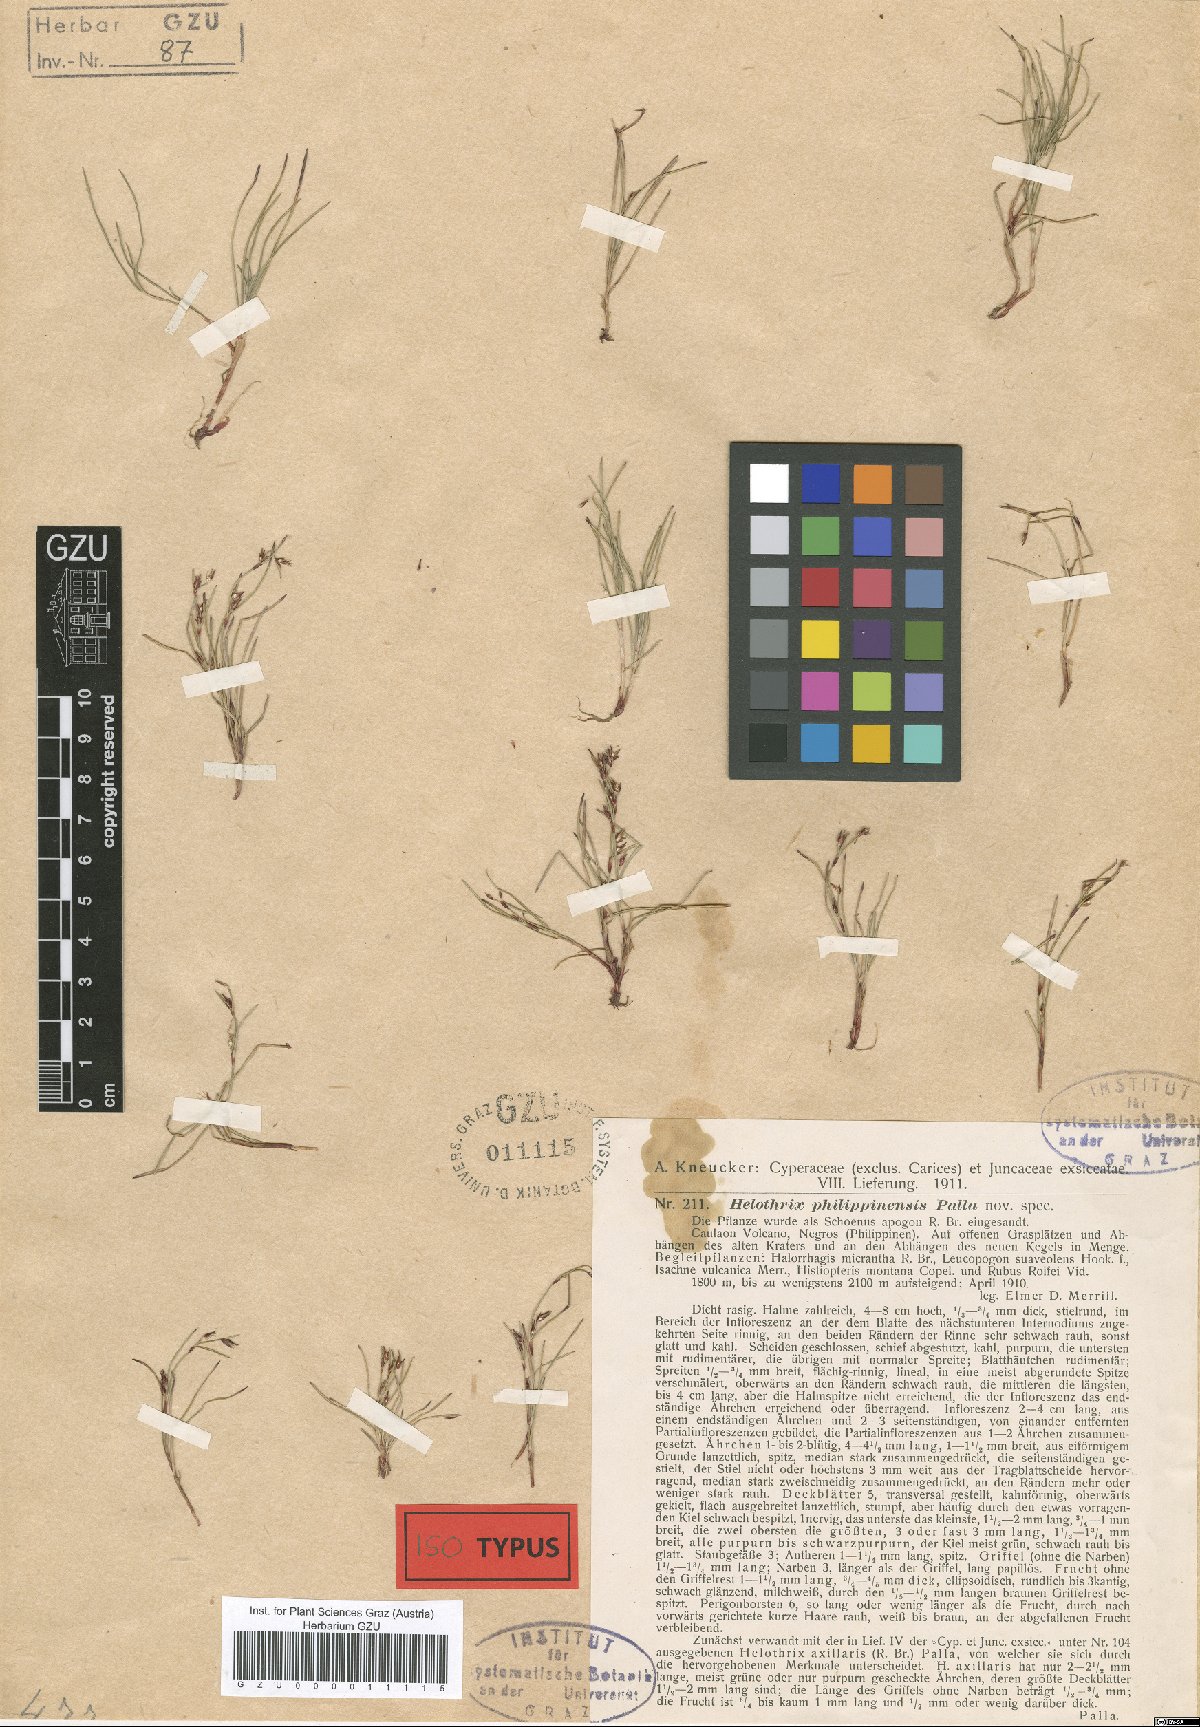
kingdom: Plantae
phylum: Tracheophyta
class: Liliopsida
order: Poales
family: Cyperaceae
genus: Schoenus
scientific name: Schoenus maschalinus
